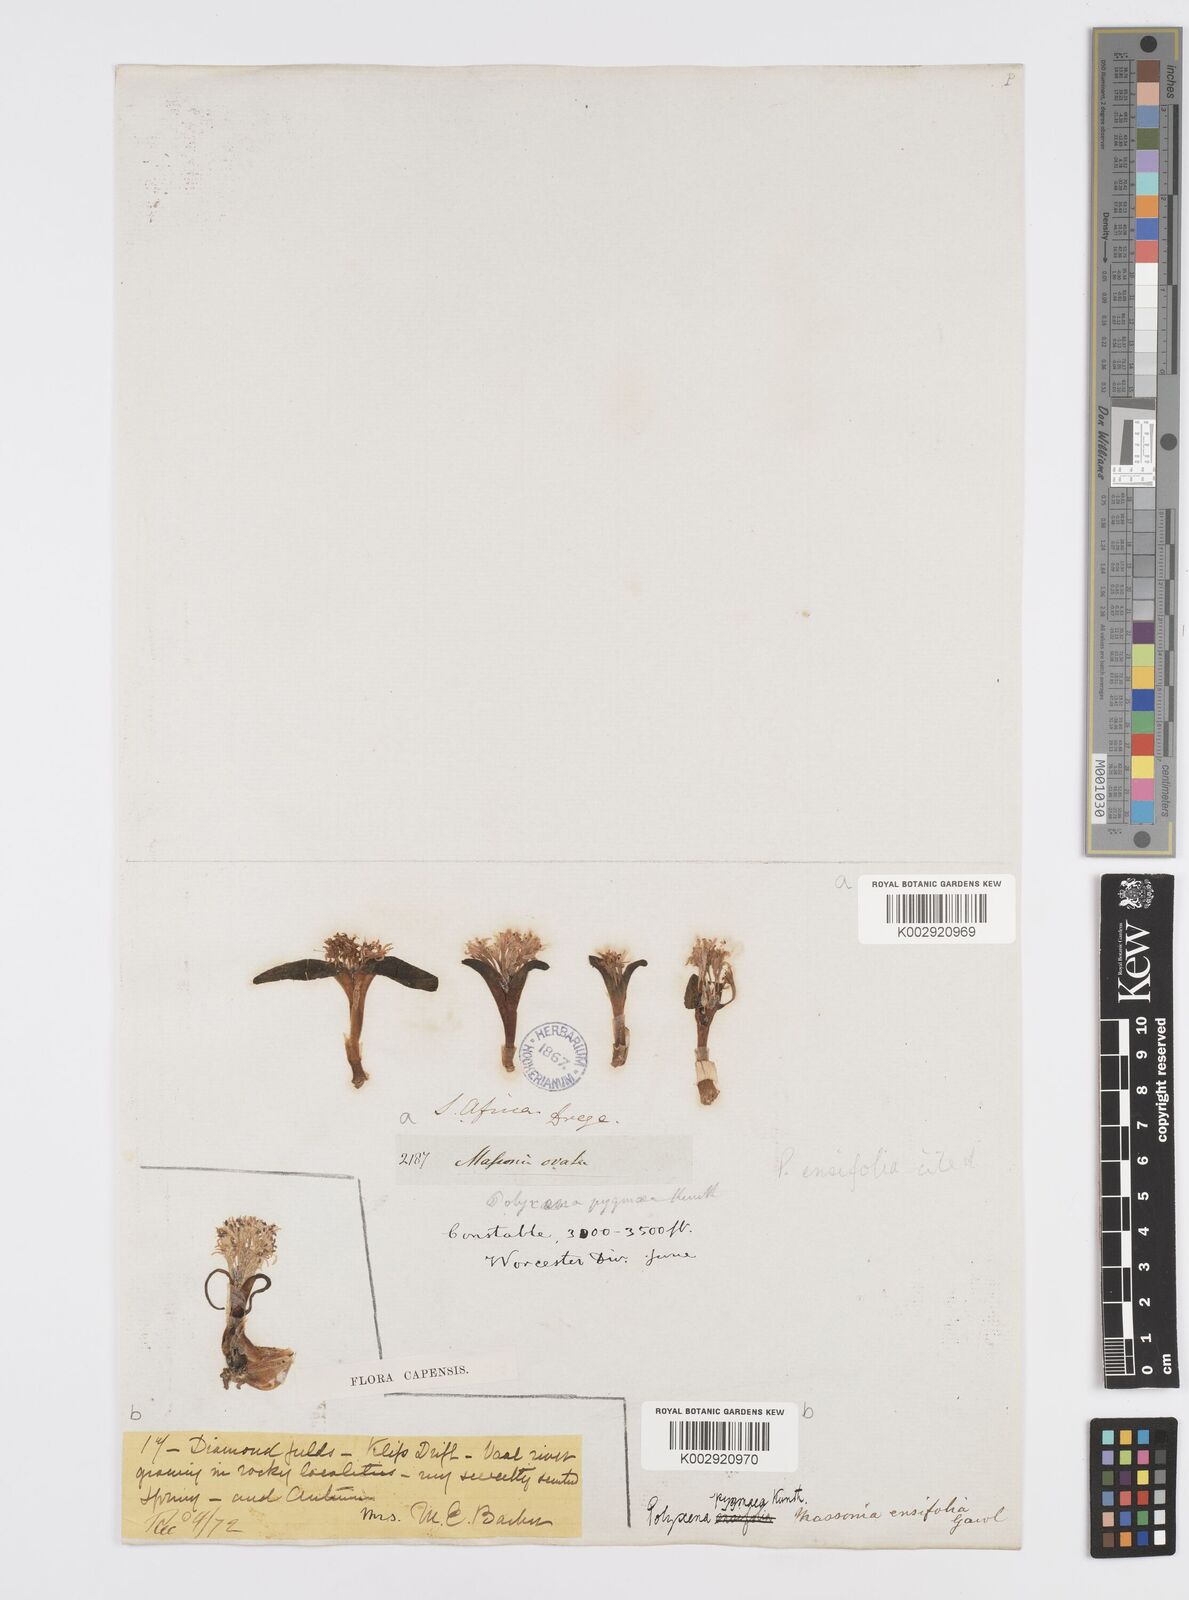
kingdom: Plantae
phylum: Tracheophyta
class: Liliopsida
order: Asparagales
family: Asparagaceae
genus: Lachenalia
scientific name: Lachenalia ensifolia
